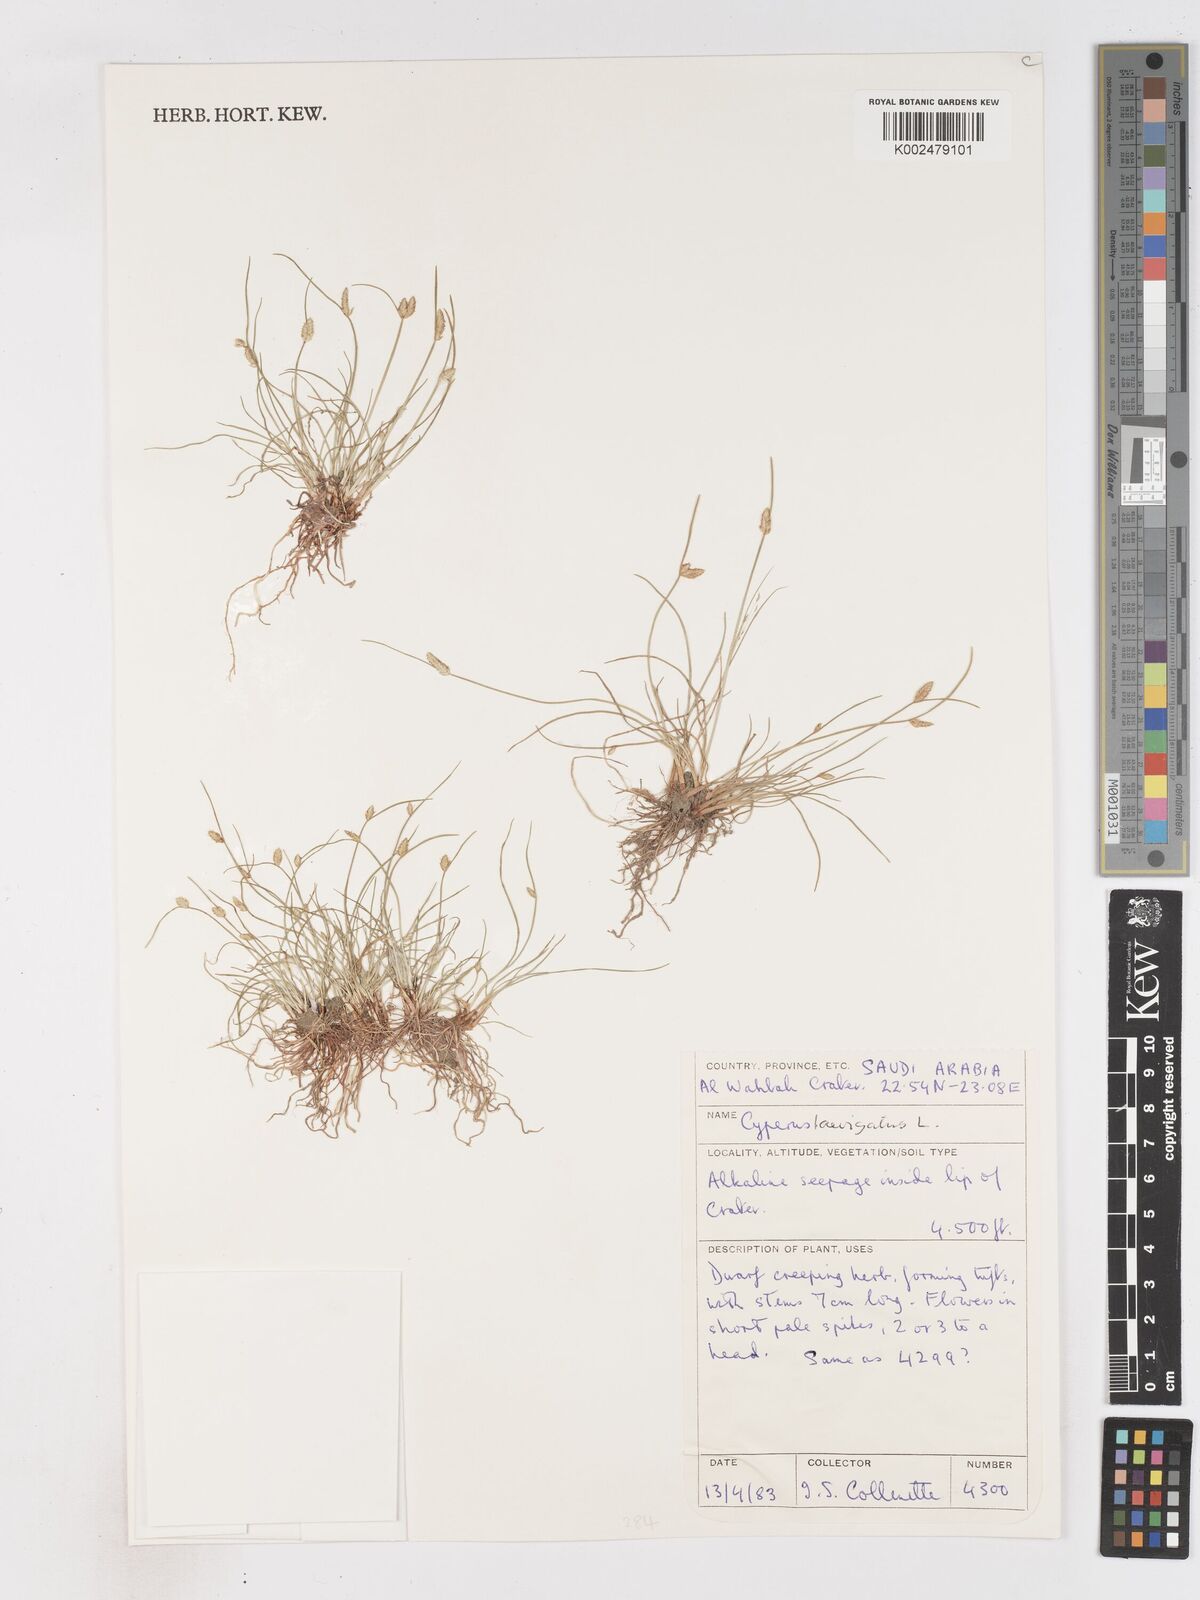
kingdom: Plantae
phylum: Tracheophyta
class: Liliopsida
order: Poales
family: Cyperaceae
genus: Cyperus
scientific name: Cyperus laevigatus
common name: Smooth flat sedge
